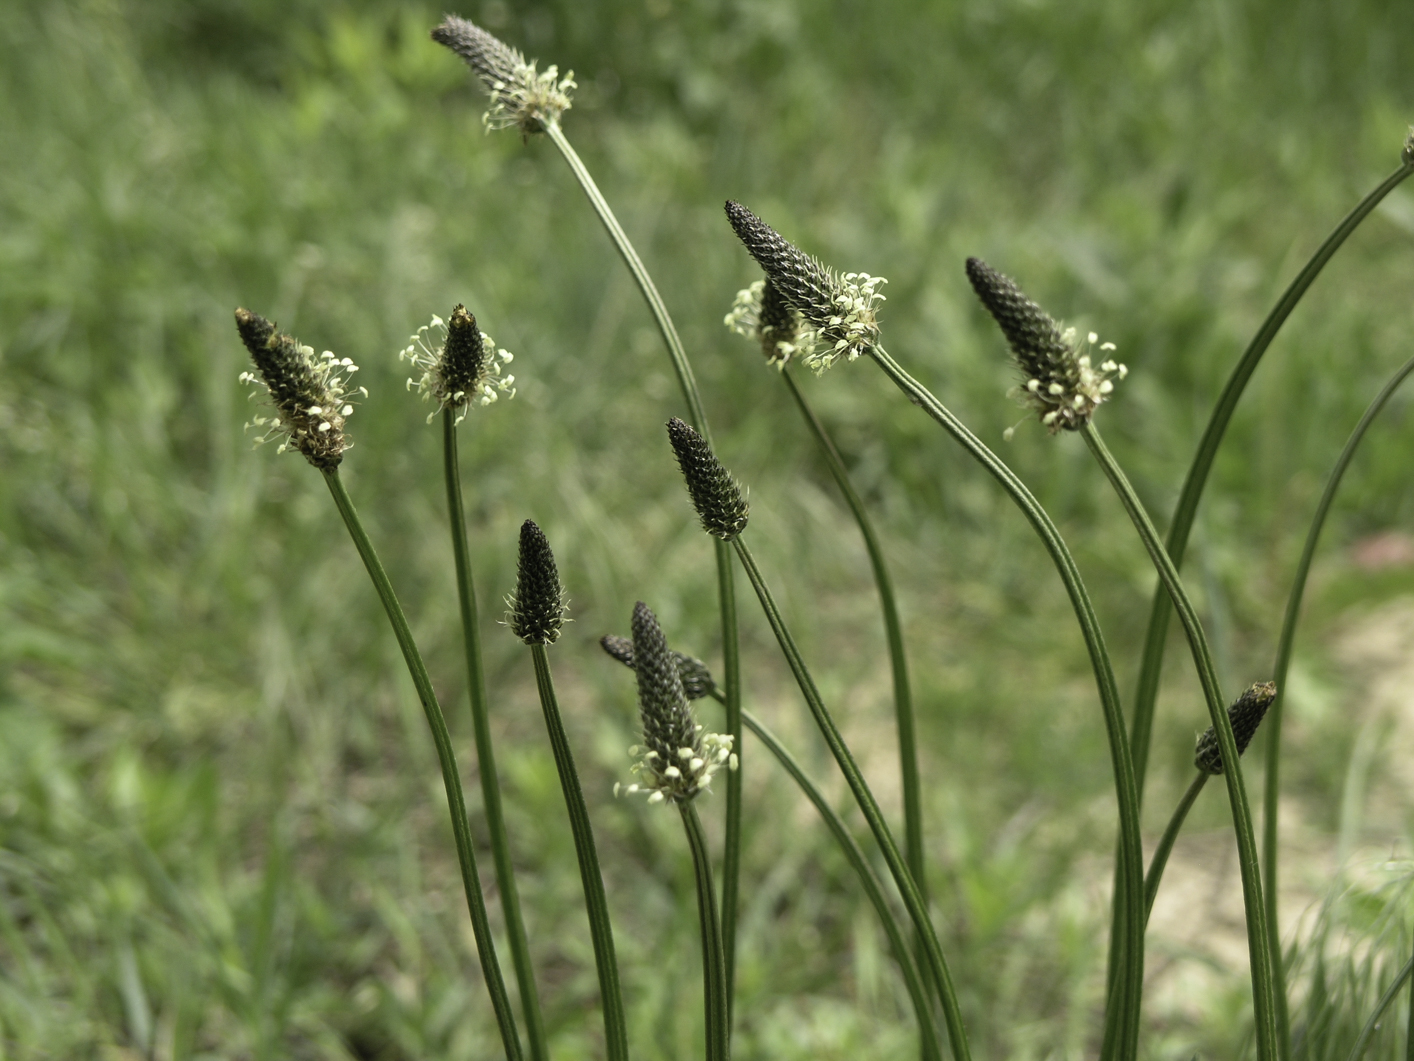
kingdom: Plantae
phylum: Tracheophyta
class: Magnoliopsida
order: Lamiales
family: Plantaginaceae
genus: Plantago
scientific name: Plantago lanceolata
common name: Ribwort plantain
